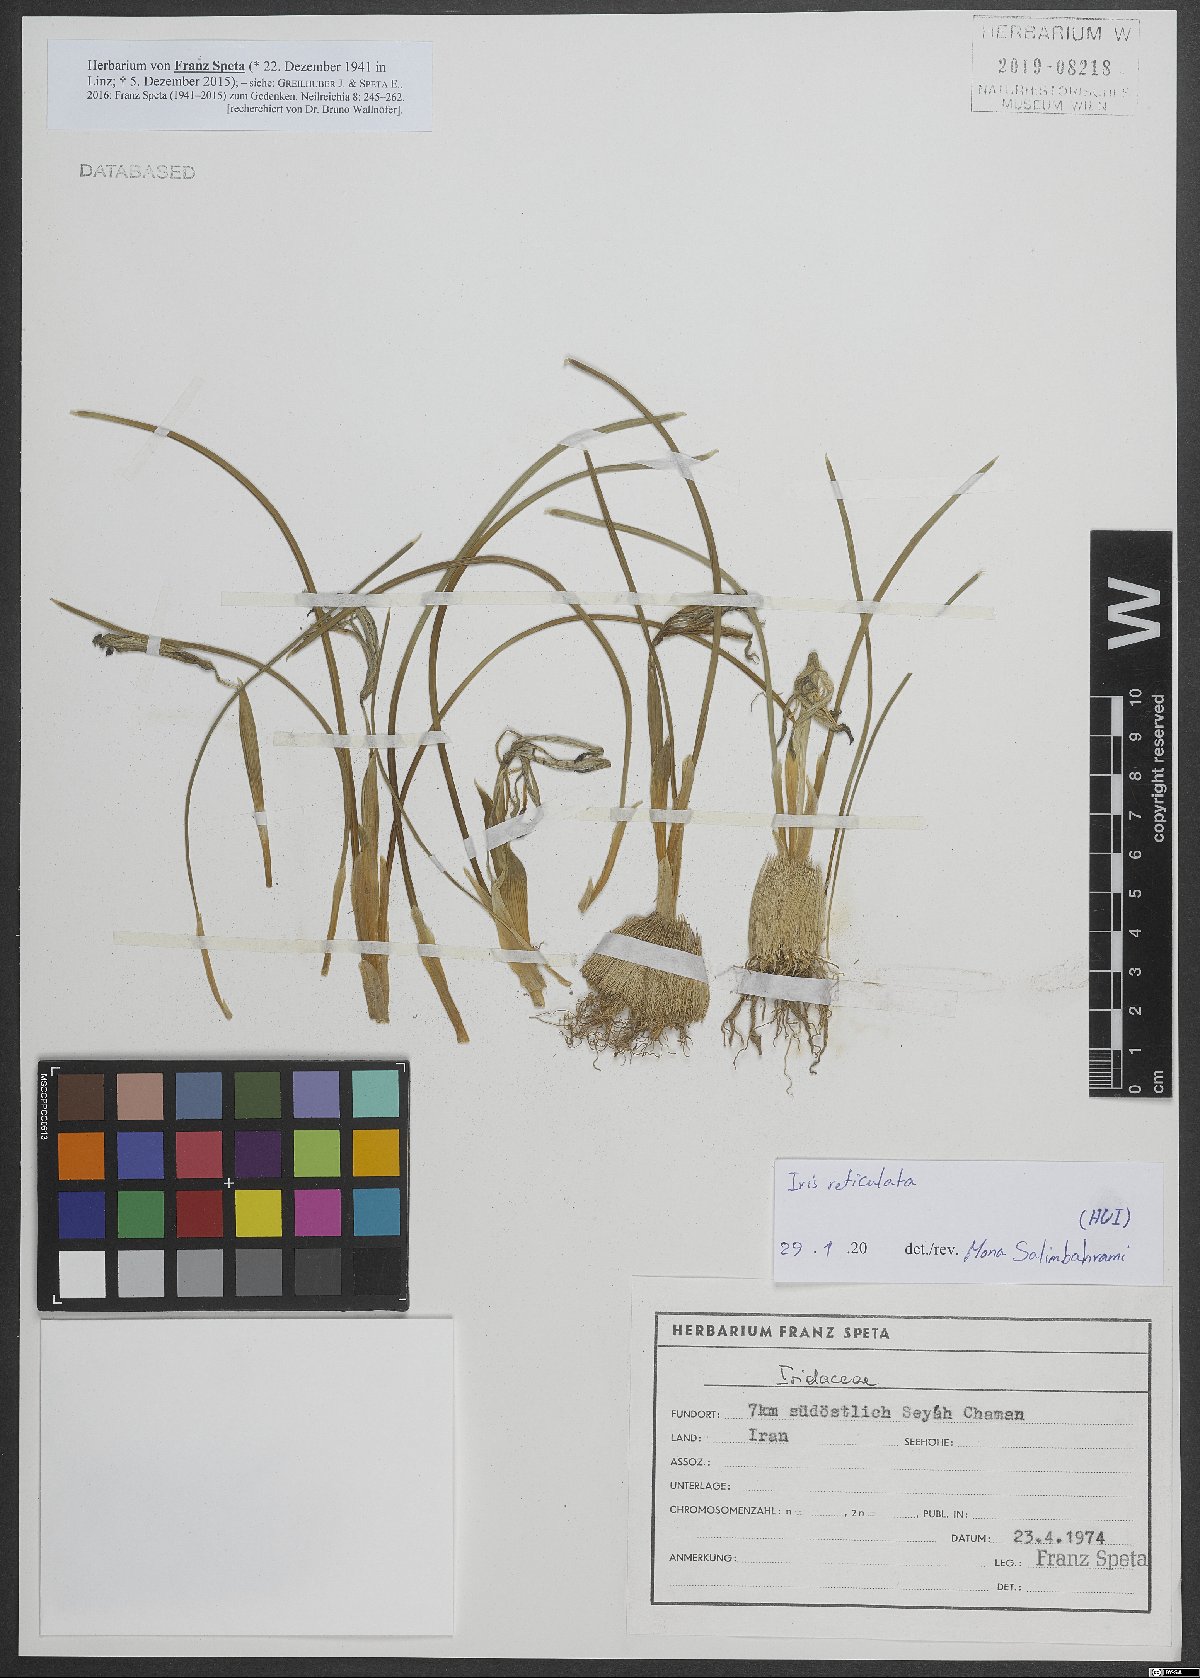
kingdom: Plantae
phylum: Tracheophyta
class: Liliopsida
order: Asparagales
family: Iridaceae
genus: Iris
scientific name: Iris reticulata
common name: Netted iris
